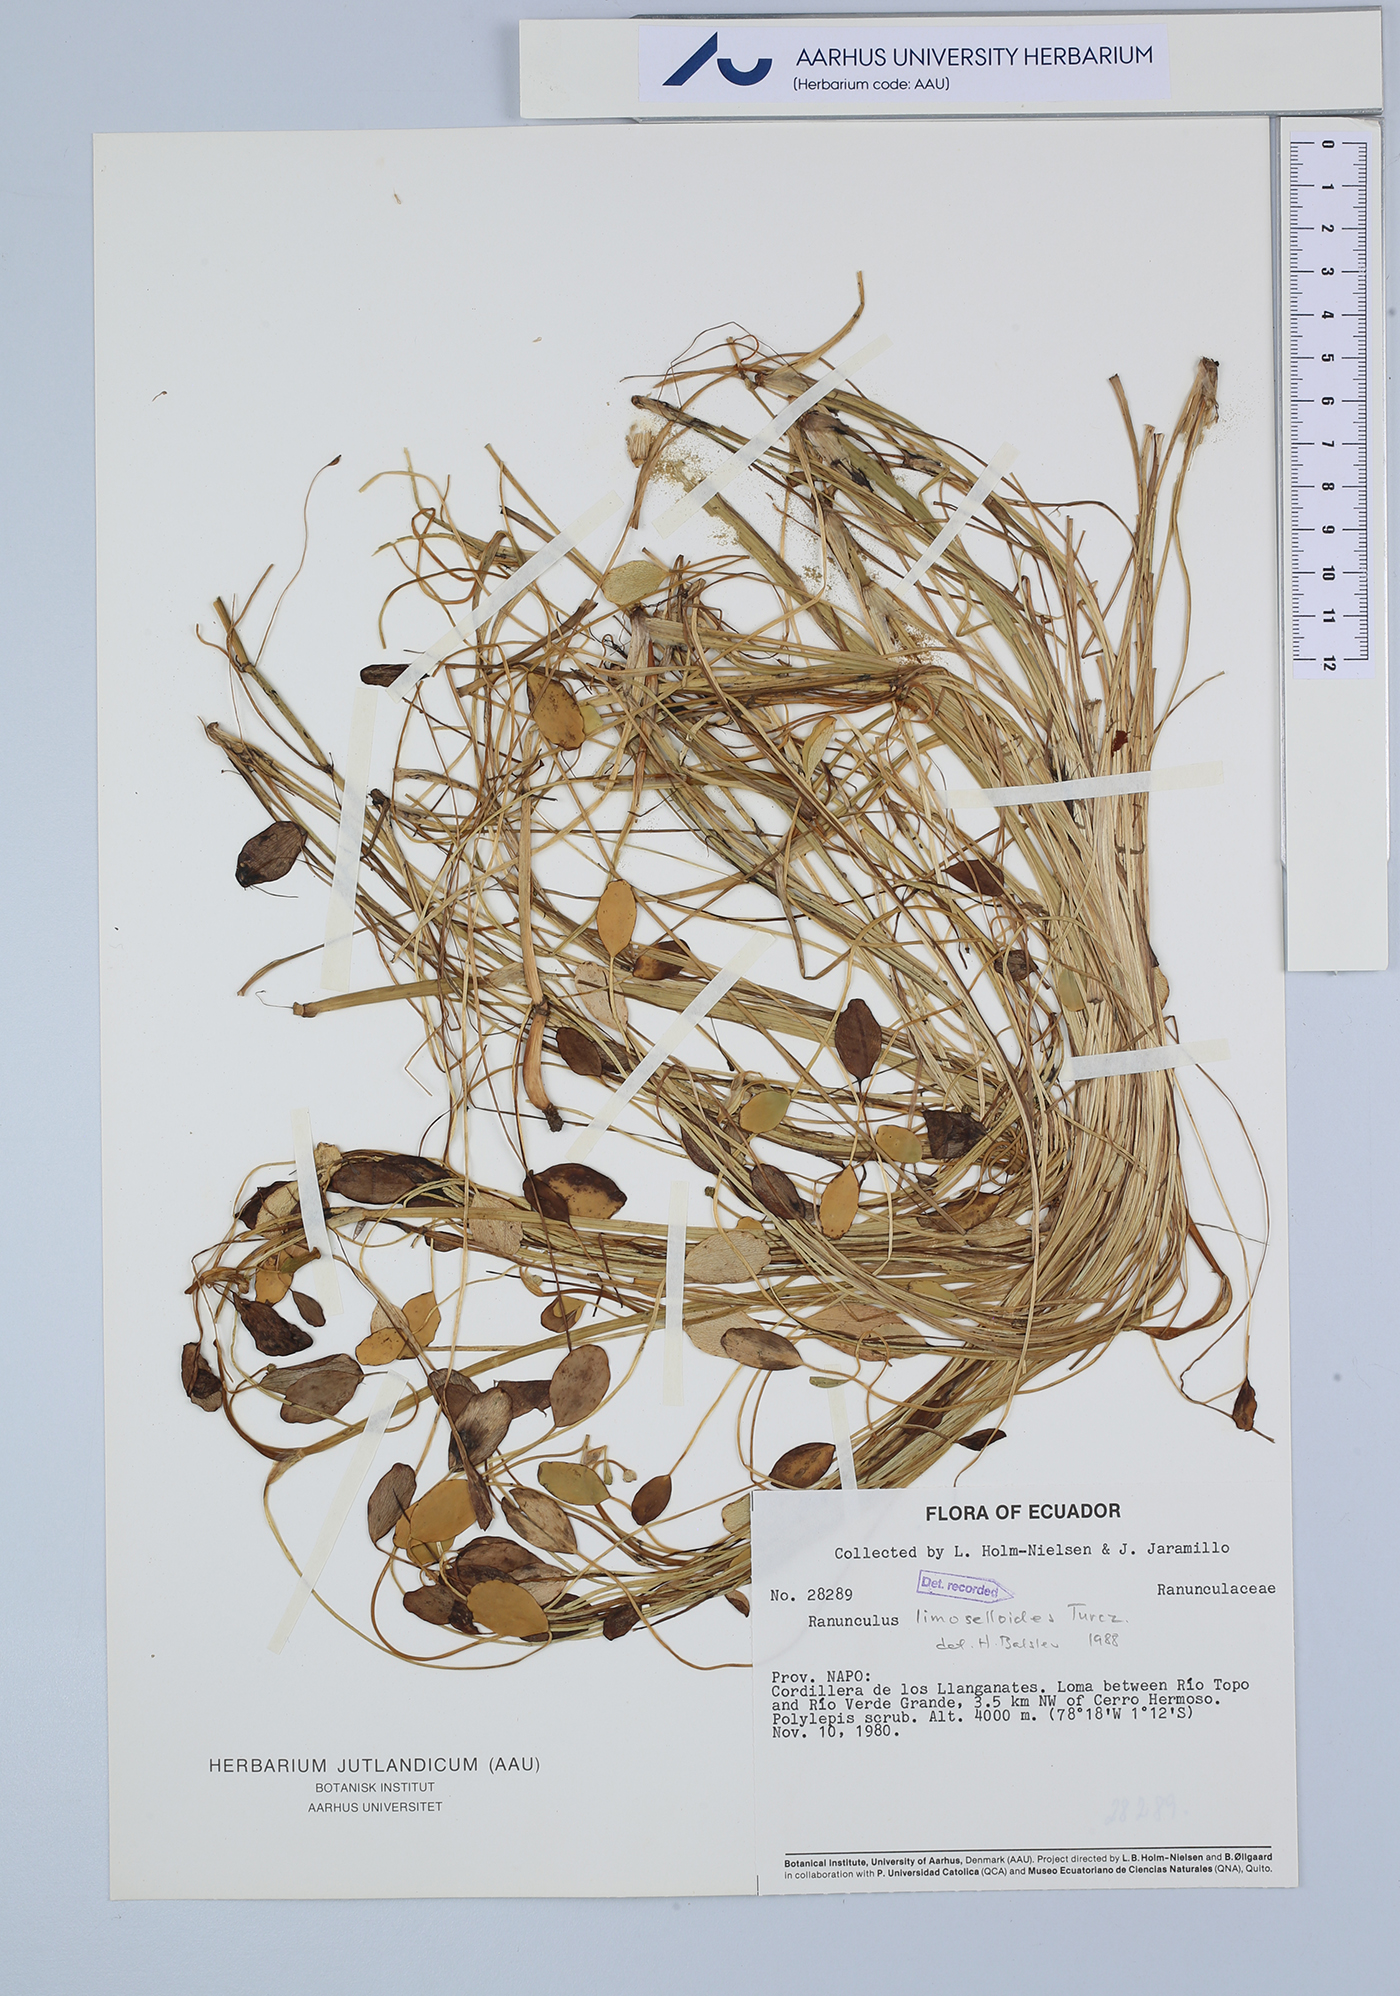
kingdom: Plantae
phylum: Tracheophyta
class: Magnoliopsida
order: Ranunculales
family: Ranunculaceae
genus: Ranunculus
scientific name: Ranunculus limoselloides
